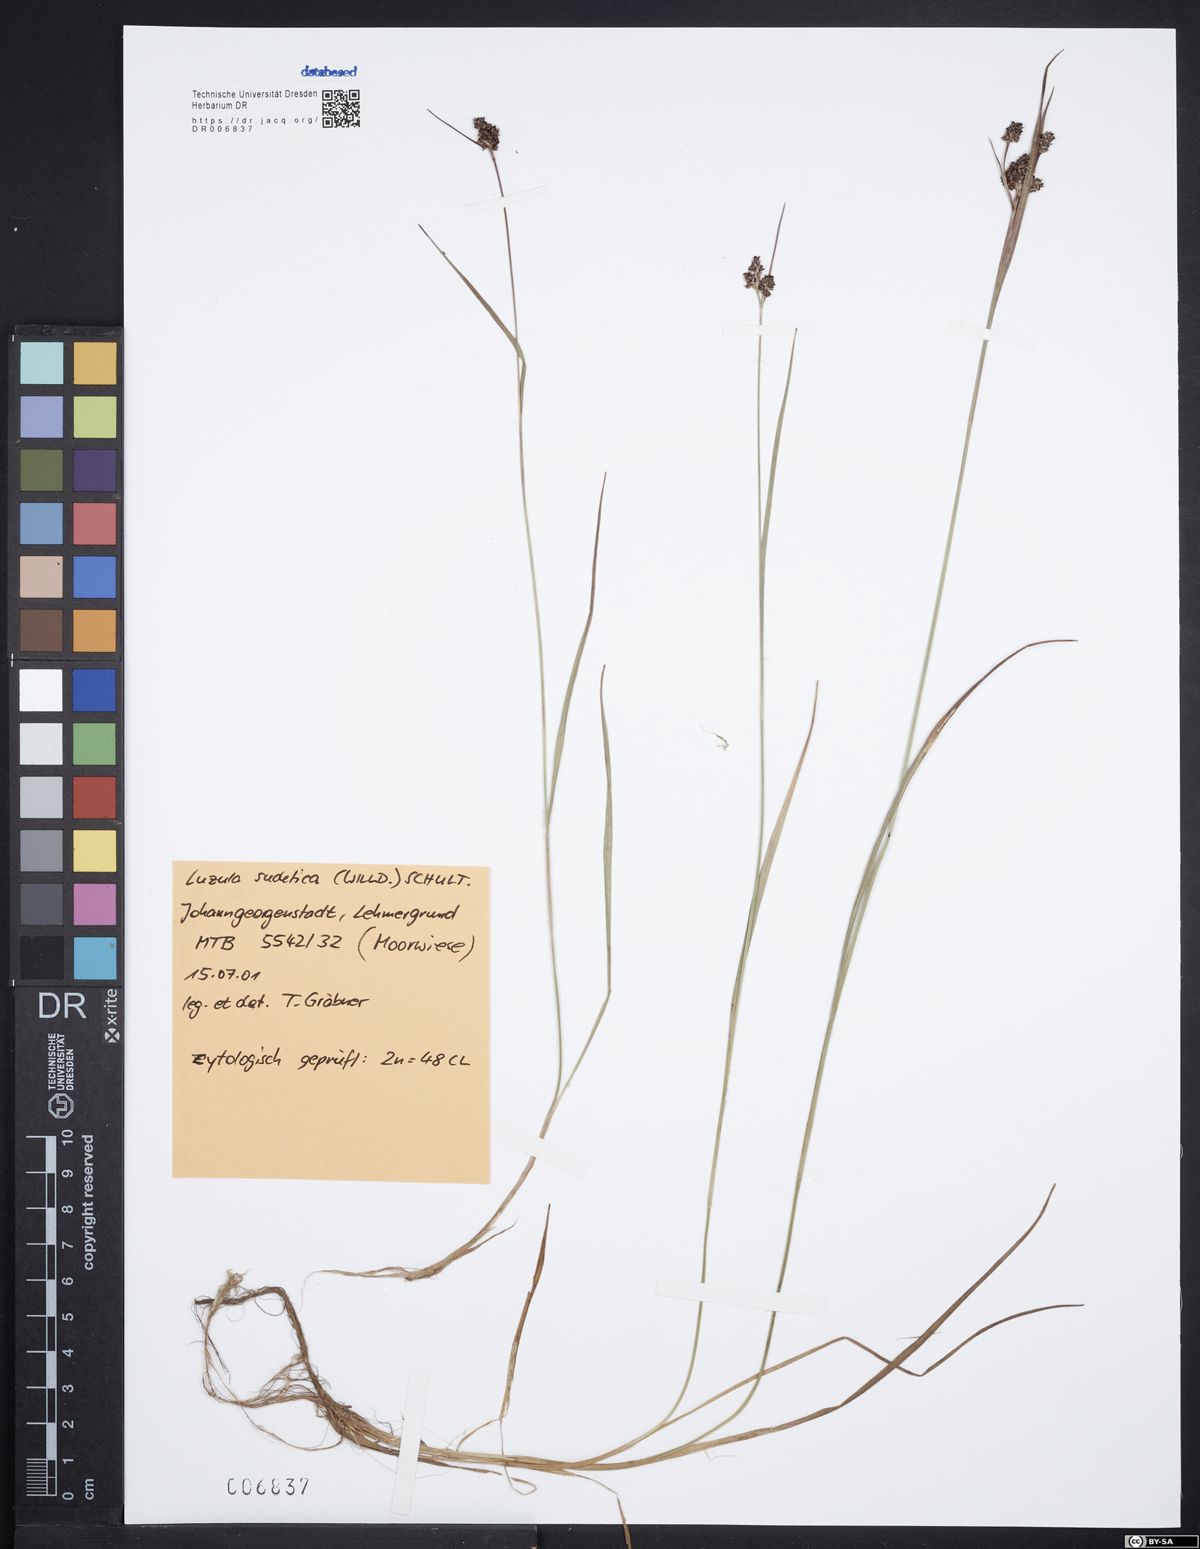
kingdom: Plantae
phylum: Tracheophyta
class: Liliopsida
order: Poales
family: Juncaceae
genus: Luzula
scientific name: Luzula sudetica
